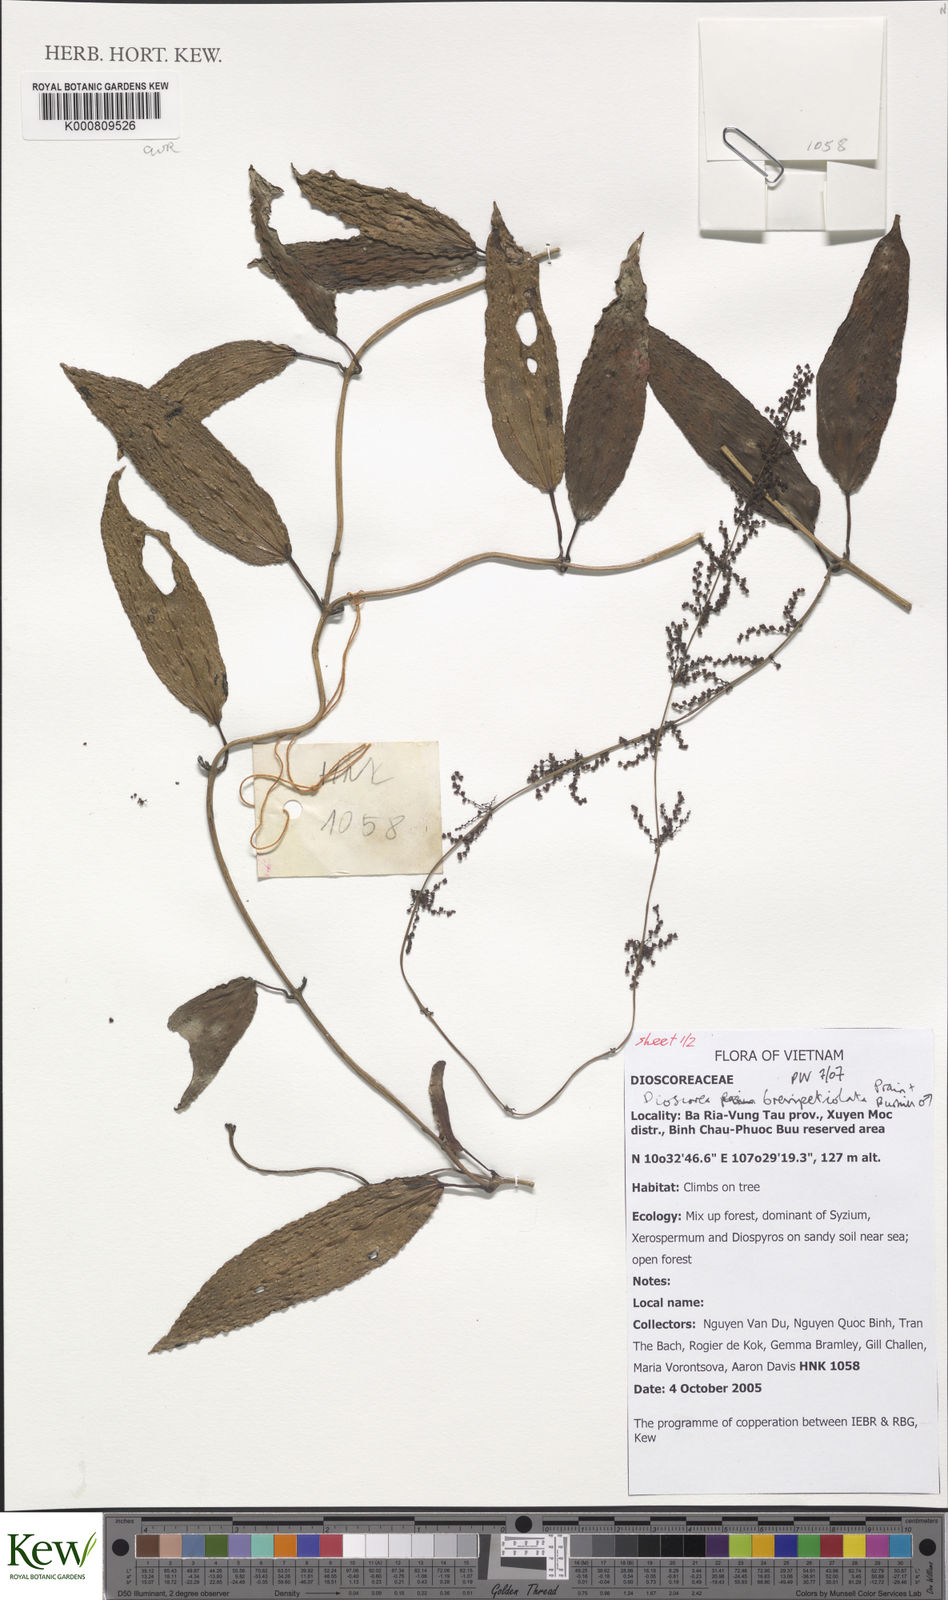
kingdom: Plantae
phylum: Tracheophyta
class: Liliopsida
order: Dioscoreales
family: Dioscoreaceae
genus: Dioscorea
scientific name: Dioscorea brevipetiolata
